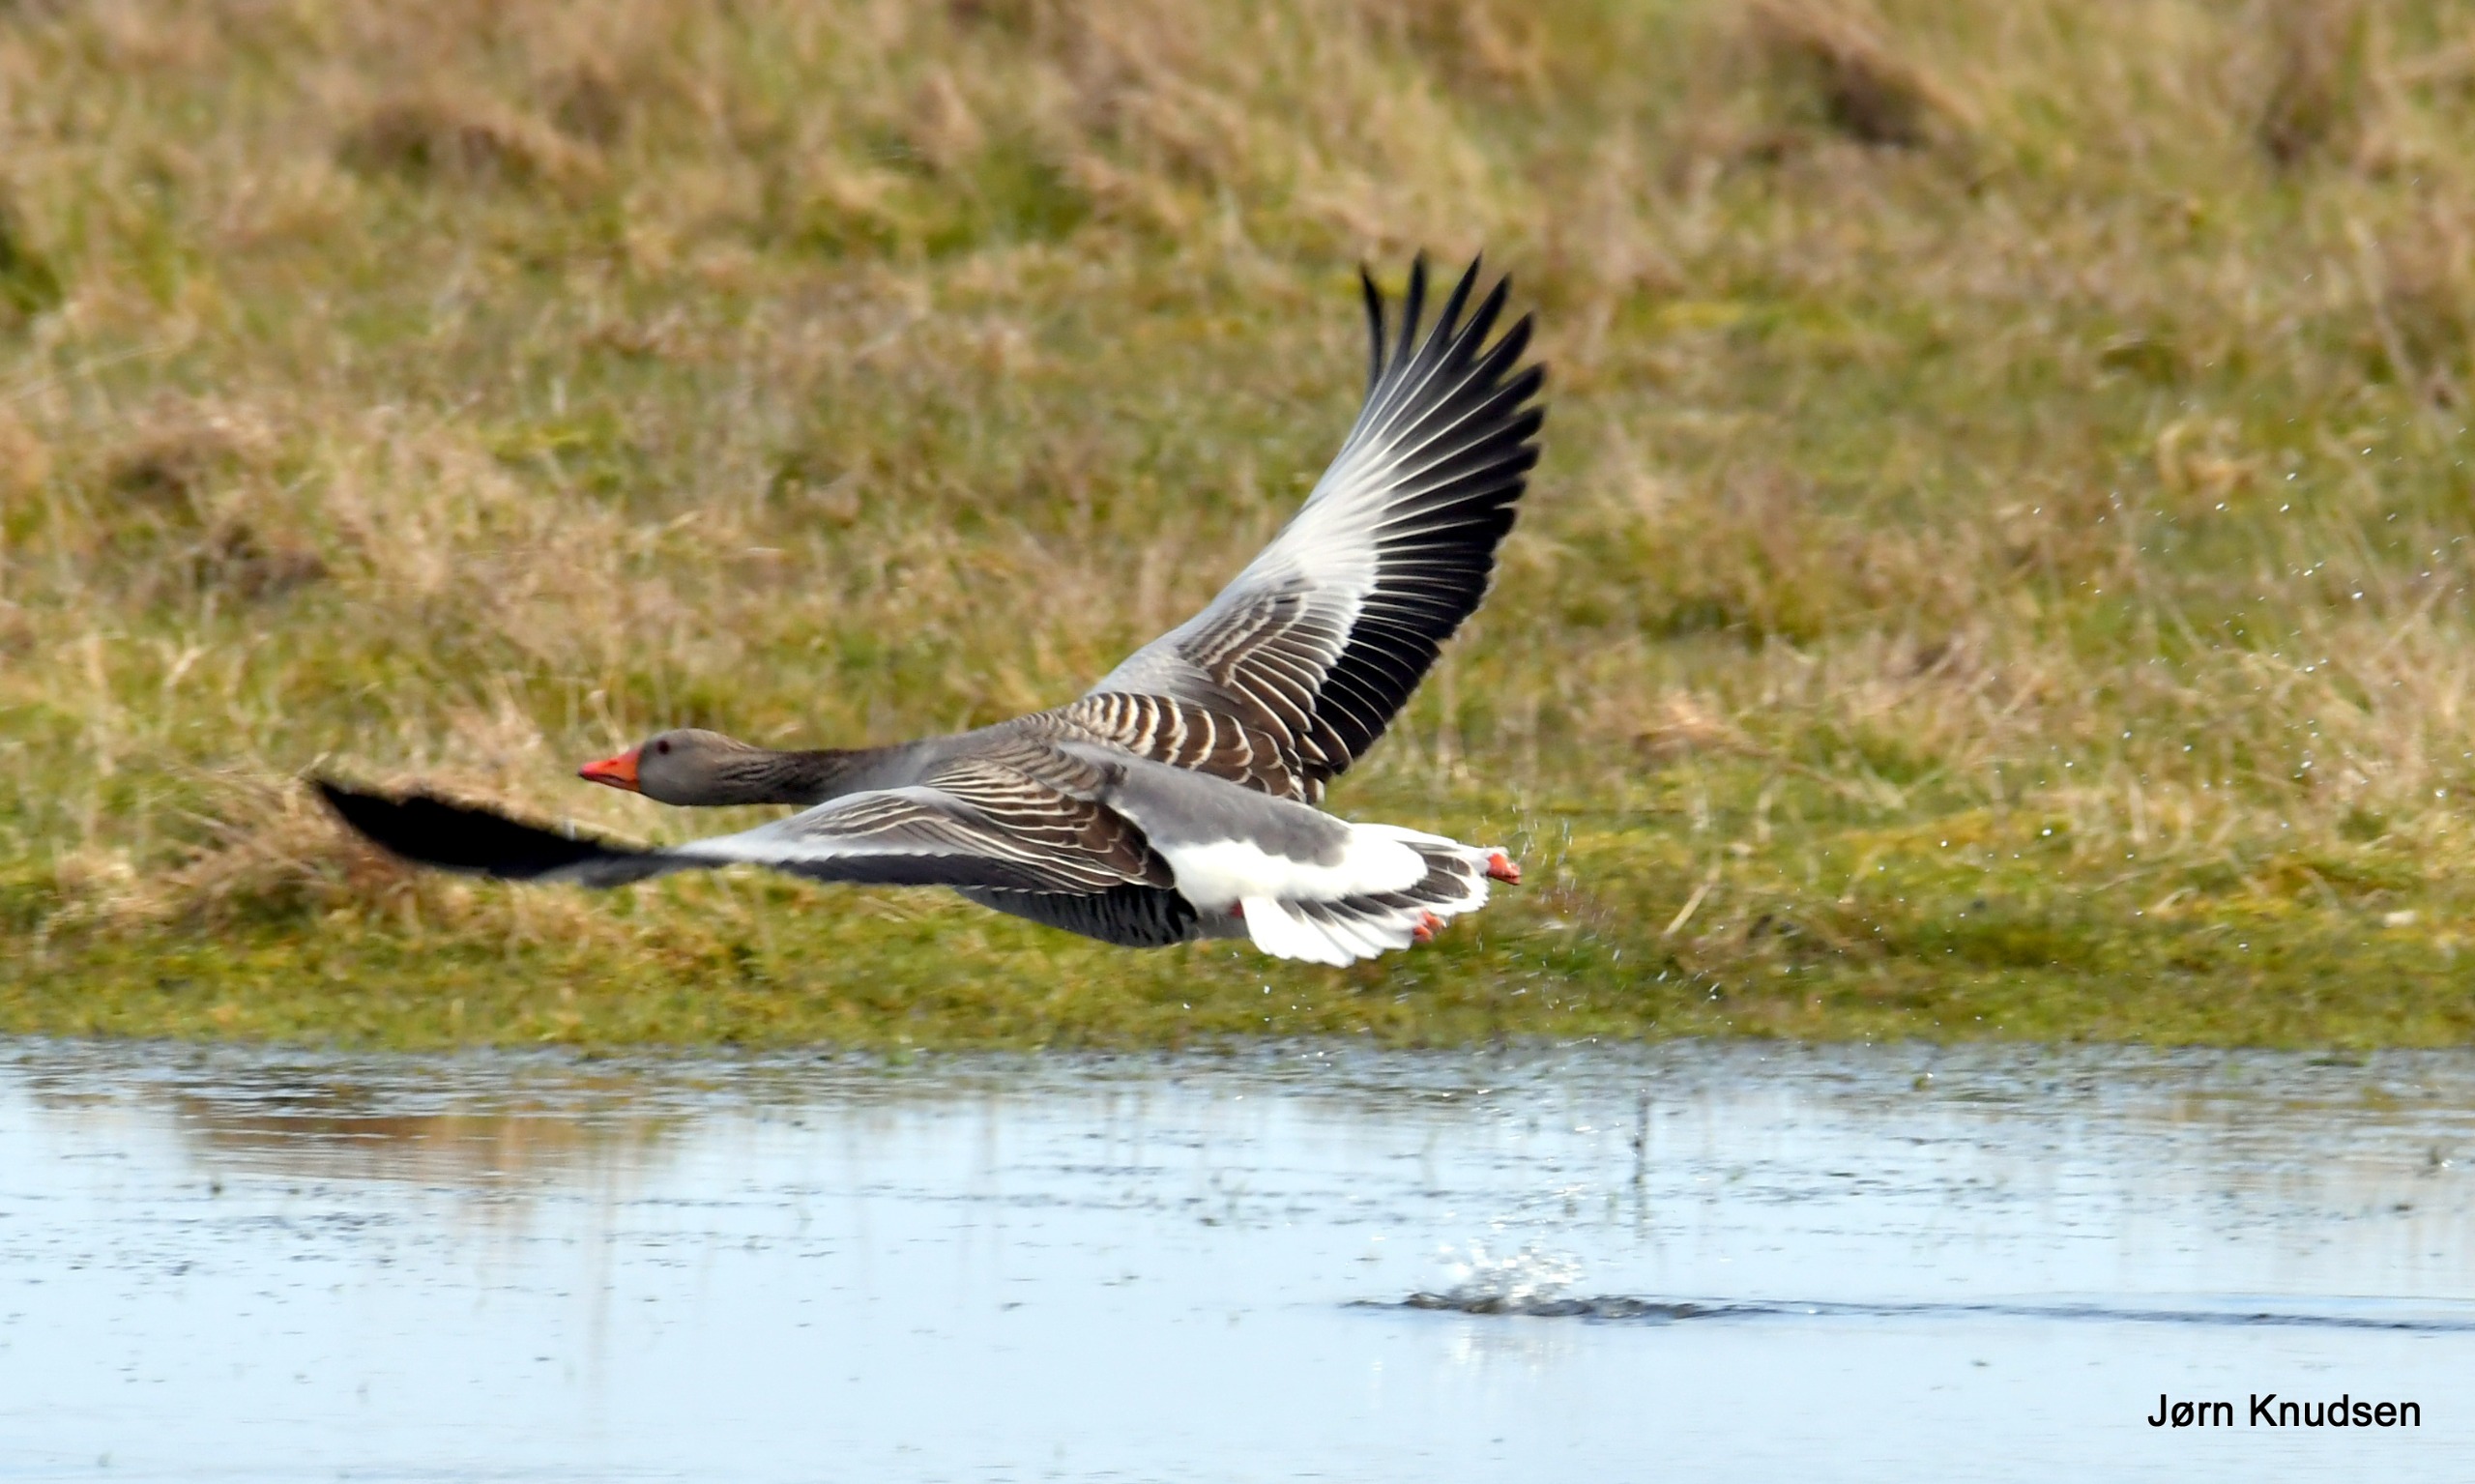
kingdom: Animalia
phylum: Chordata
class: Aves
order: Anseriformes
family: Anatidae
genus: Anser
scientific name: Anser anser
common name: Grågås
